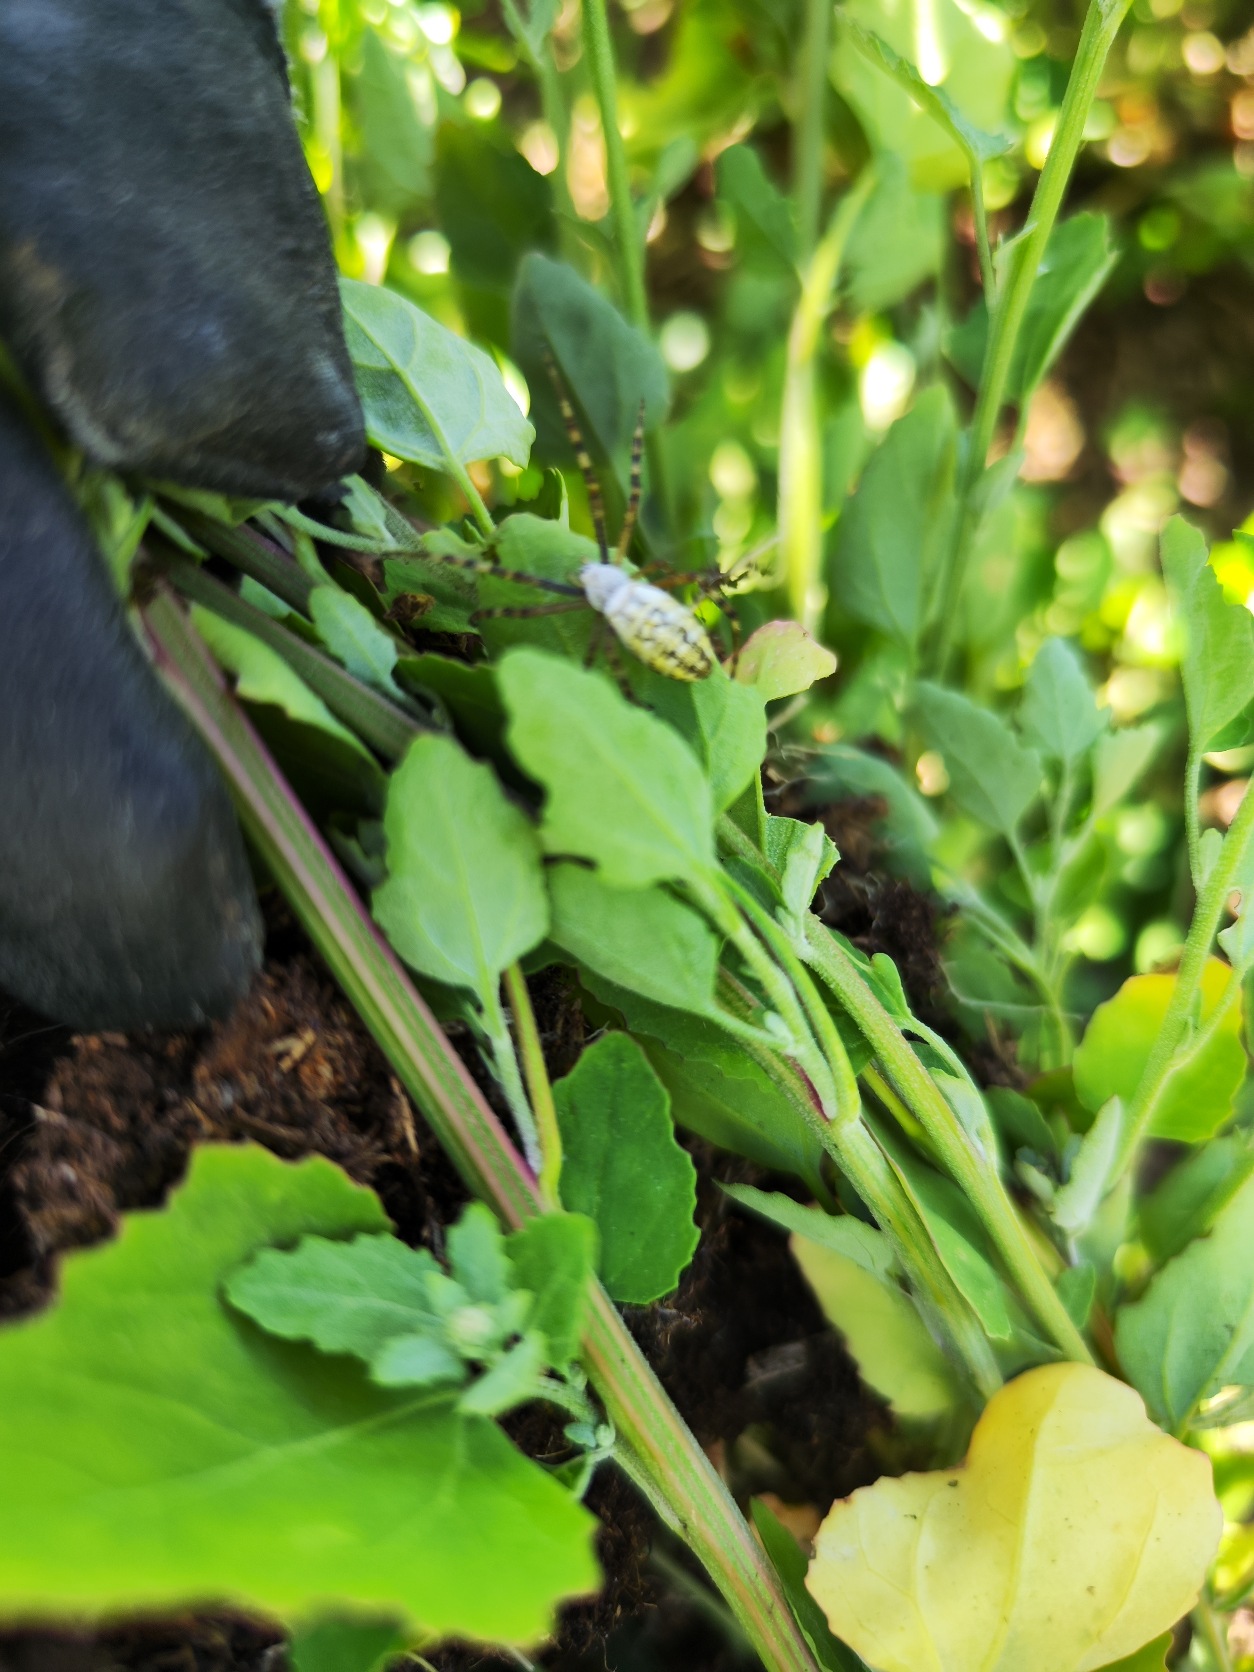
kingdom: Animalia
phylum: Arthropoda
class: Arachnida
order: Araneae
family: Araneidae
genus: Argiope
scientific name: Argiope bruennichi
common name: Hvepseedderkop
